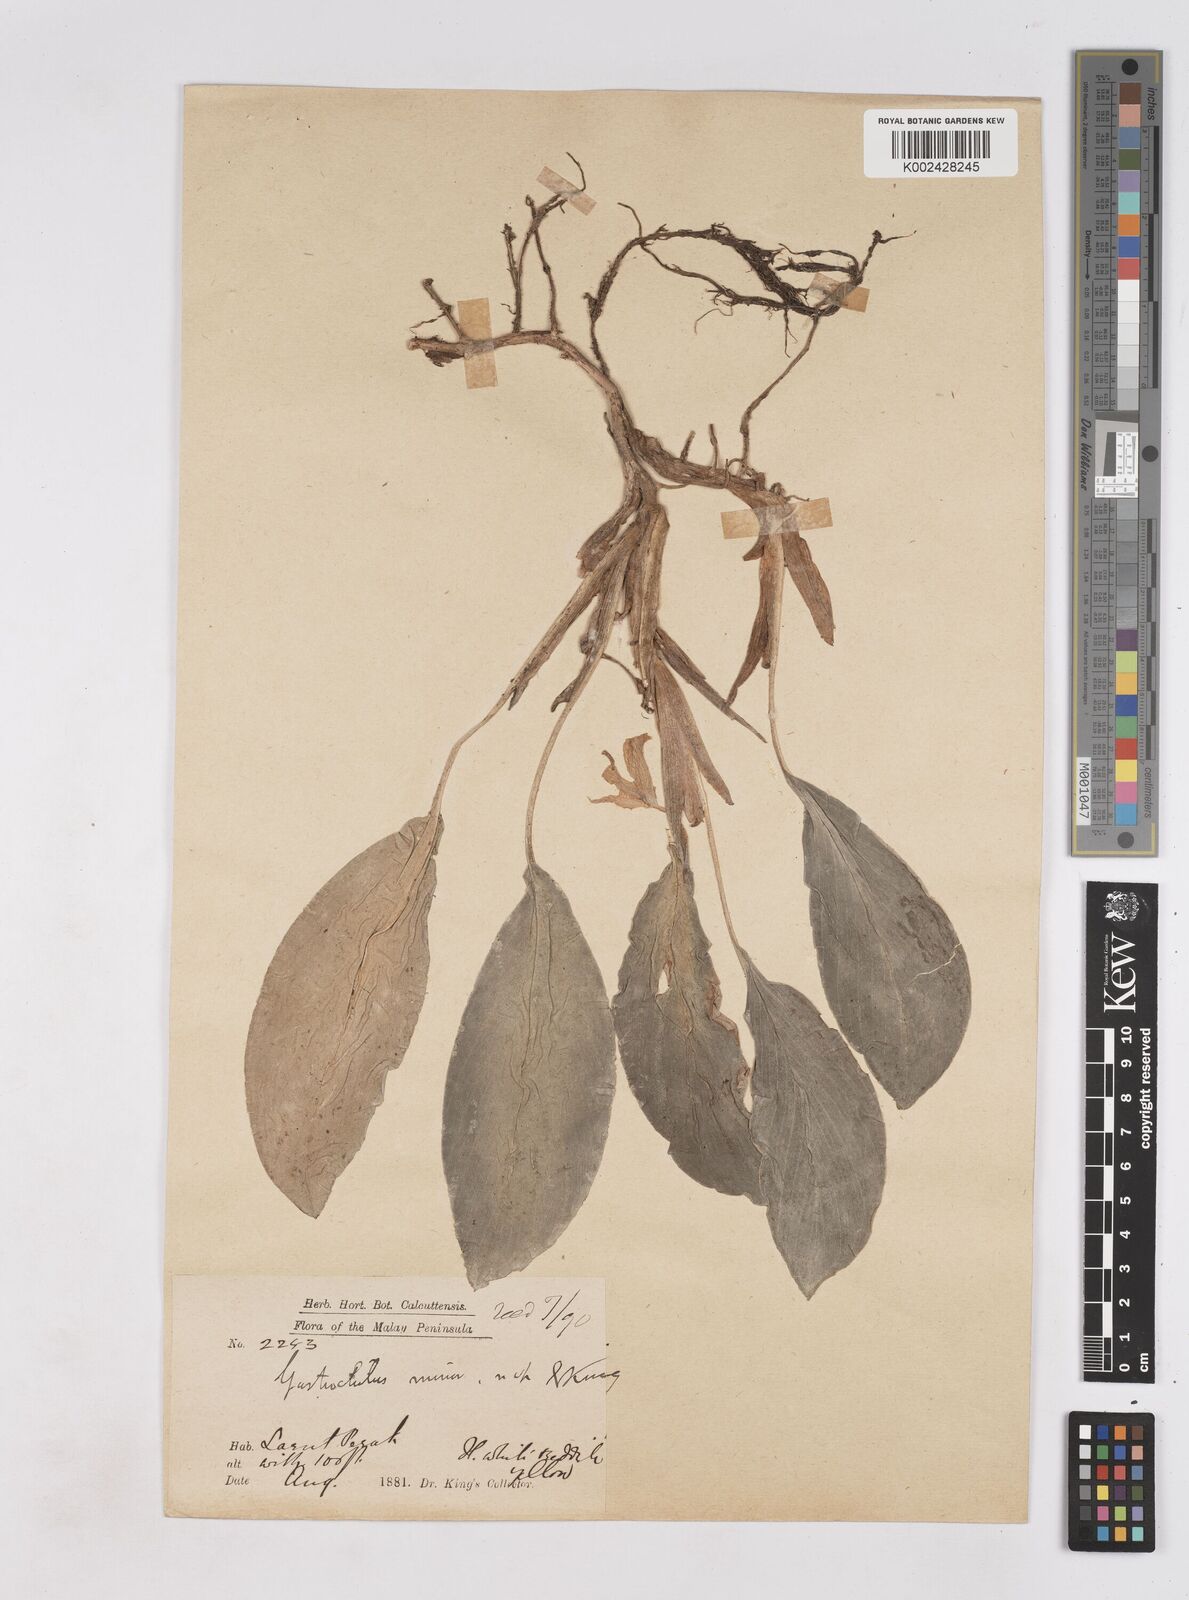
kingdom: Plantae
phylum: Tracheophyta
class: Liliopsida
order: Zingiberales
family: Zingiberaceae
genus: Boesenbergia
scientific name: Boesenbergia flava
